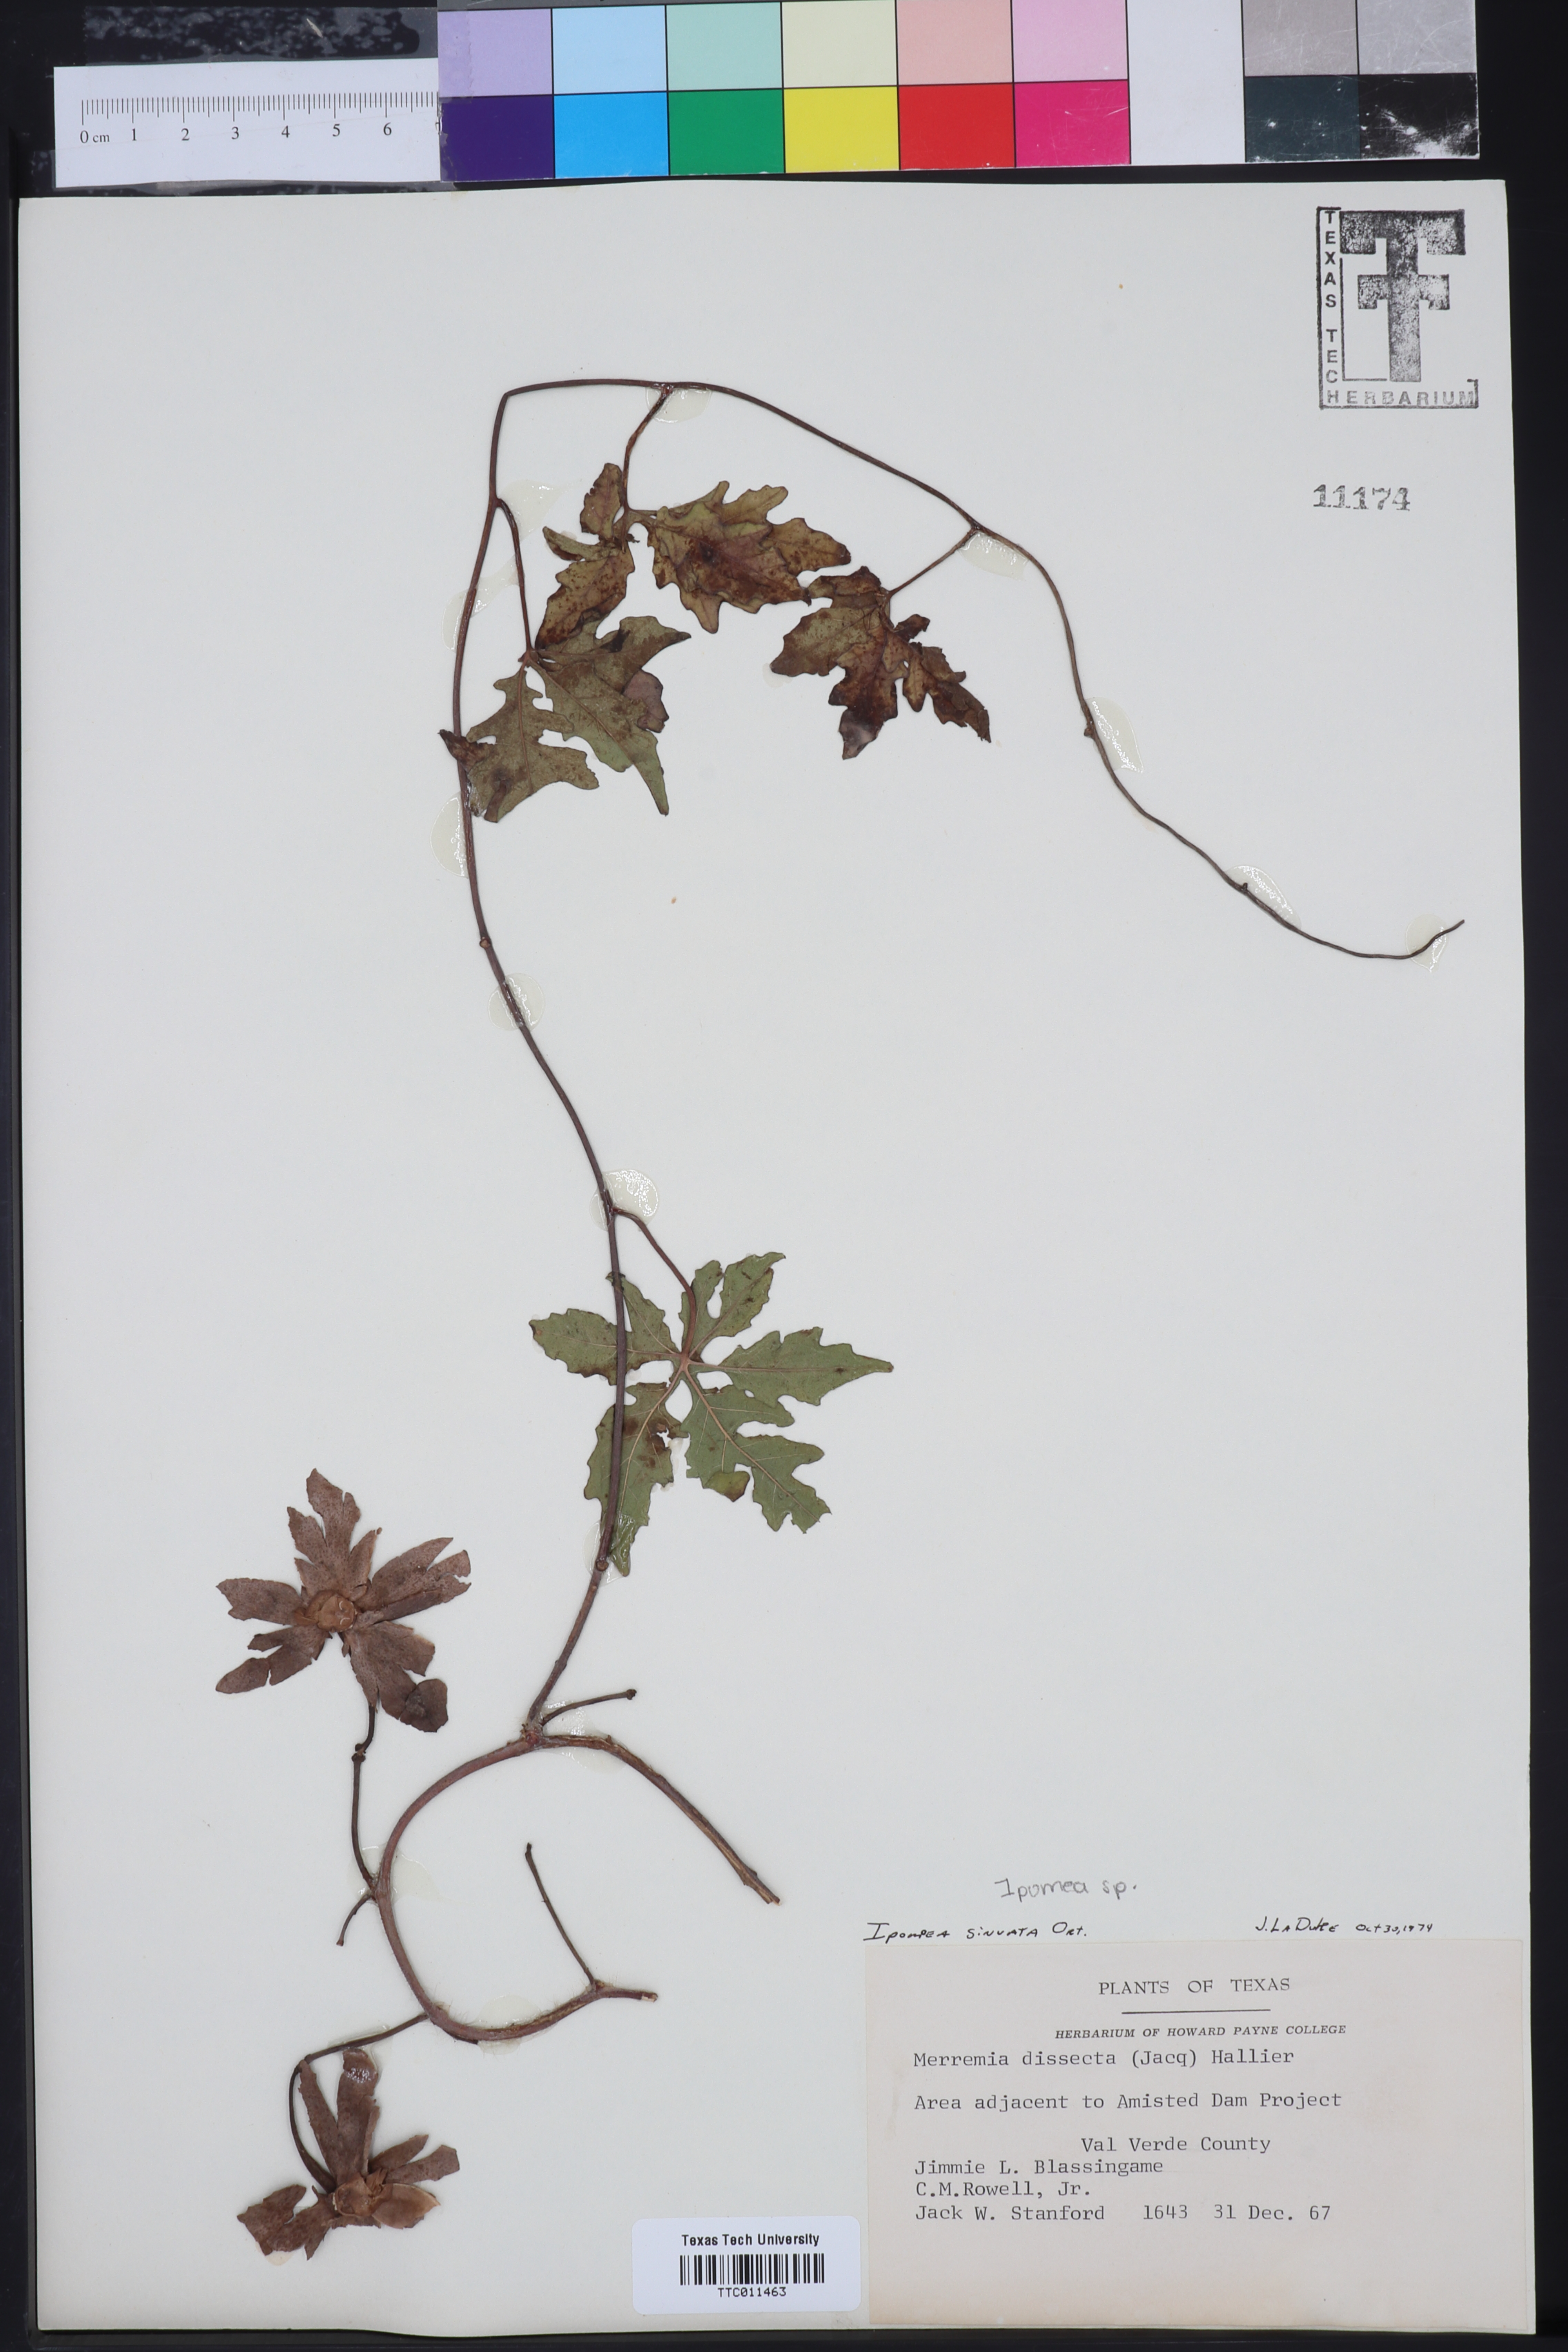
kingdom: Plantae
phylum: Tracheophyta
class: Magnoliopsida
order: Solanales
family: Convolvulaceae
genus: Distimake
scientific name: Distimake dissectus
